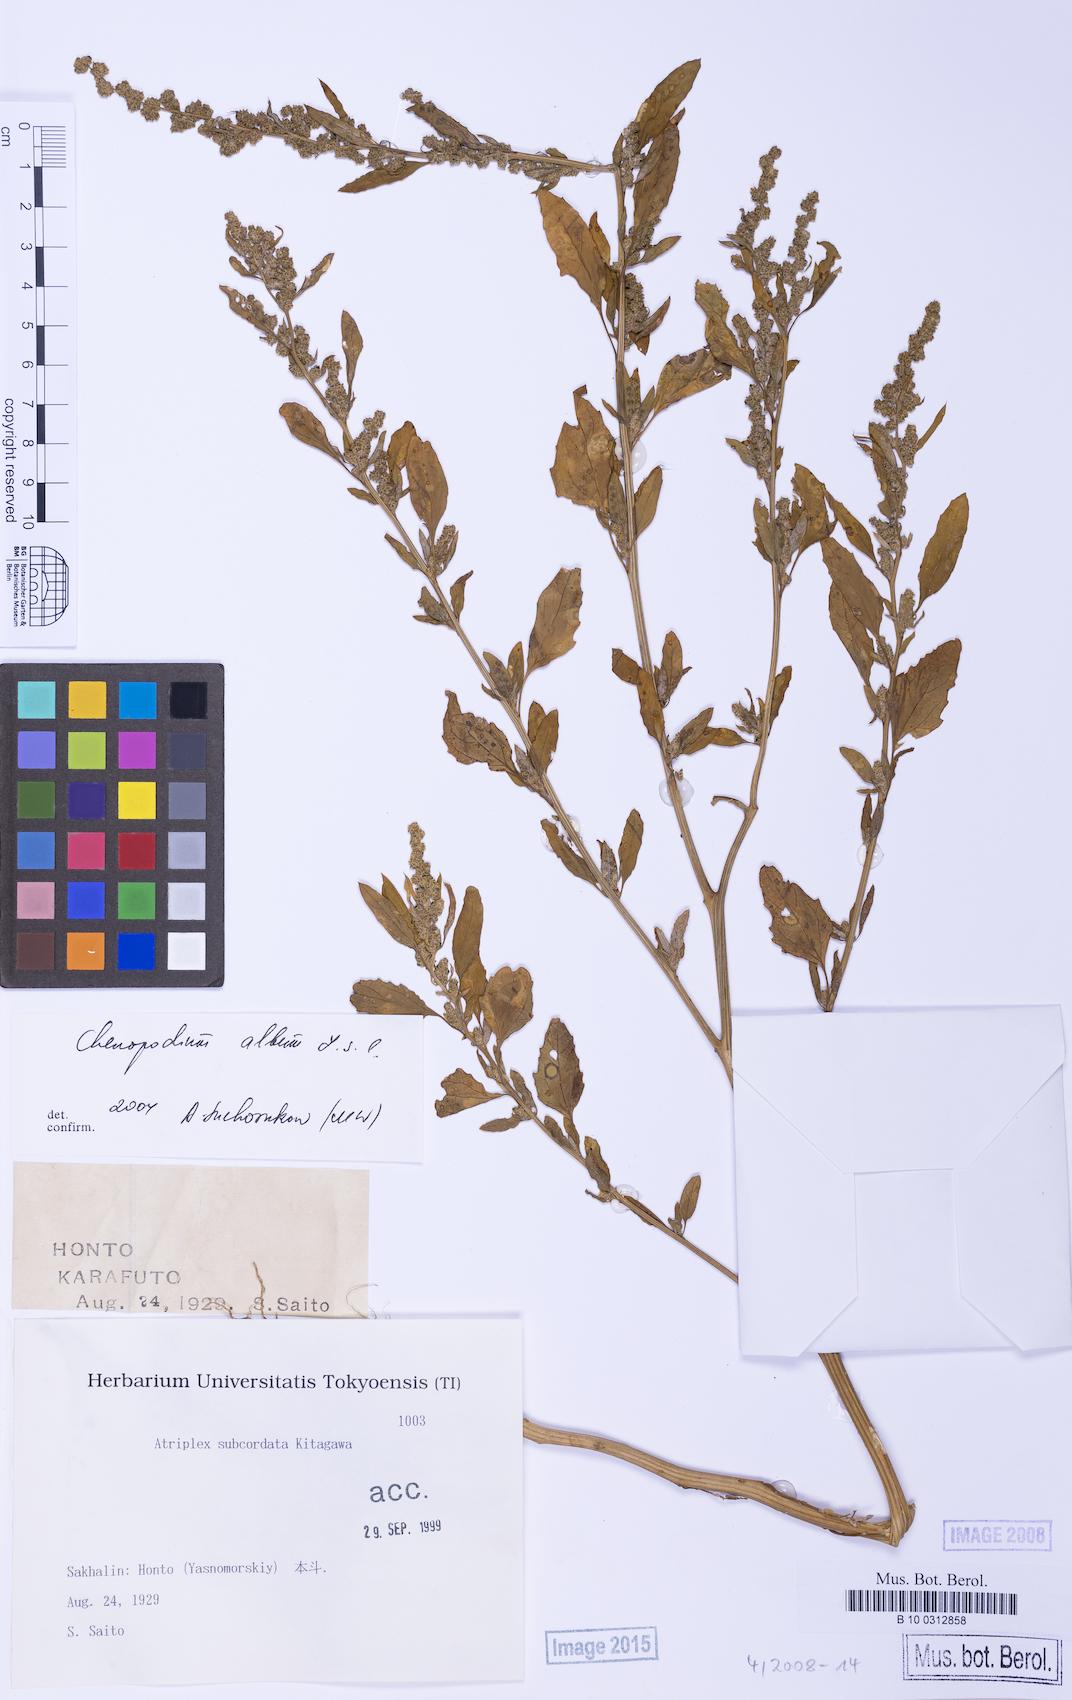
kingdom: Plantae
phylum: Tracheophyta
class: Magnoliopsida
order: Caryophyllales
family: Amaranthaceae
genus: Chenopodium
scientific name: Chenopodium album
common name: Fat-hen
